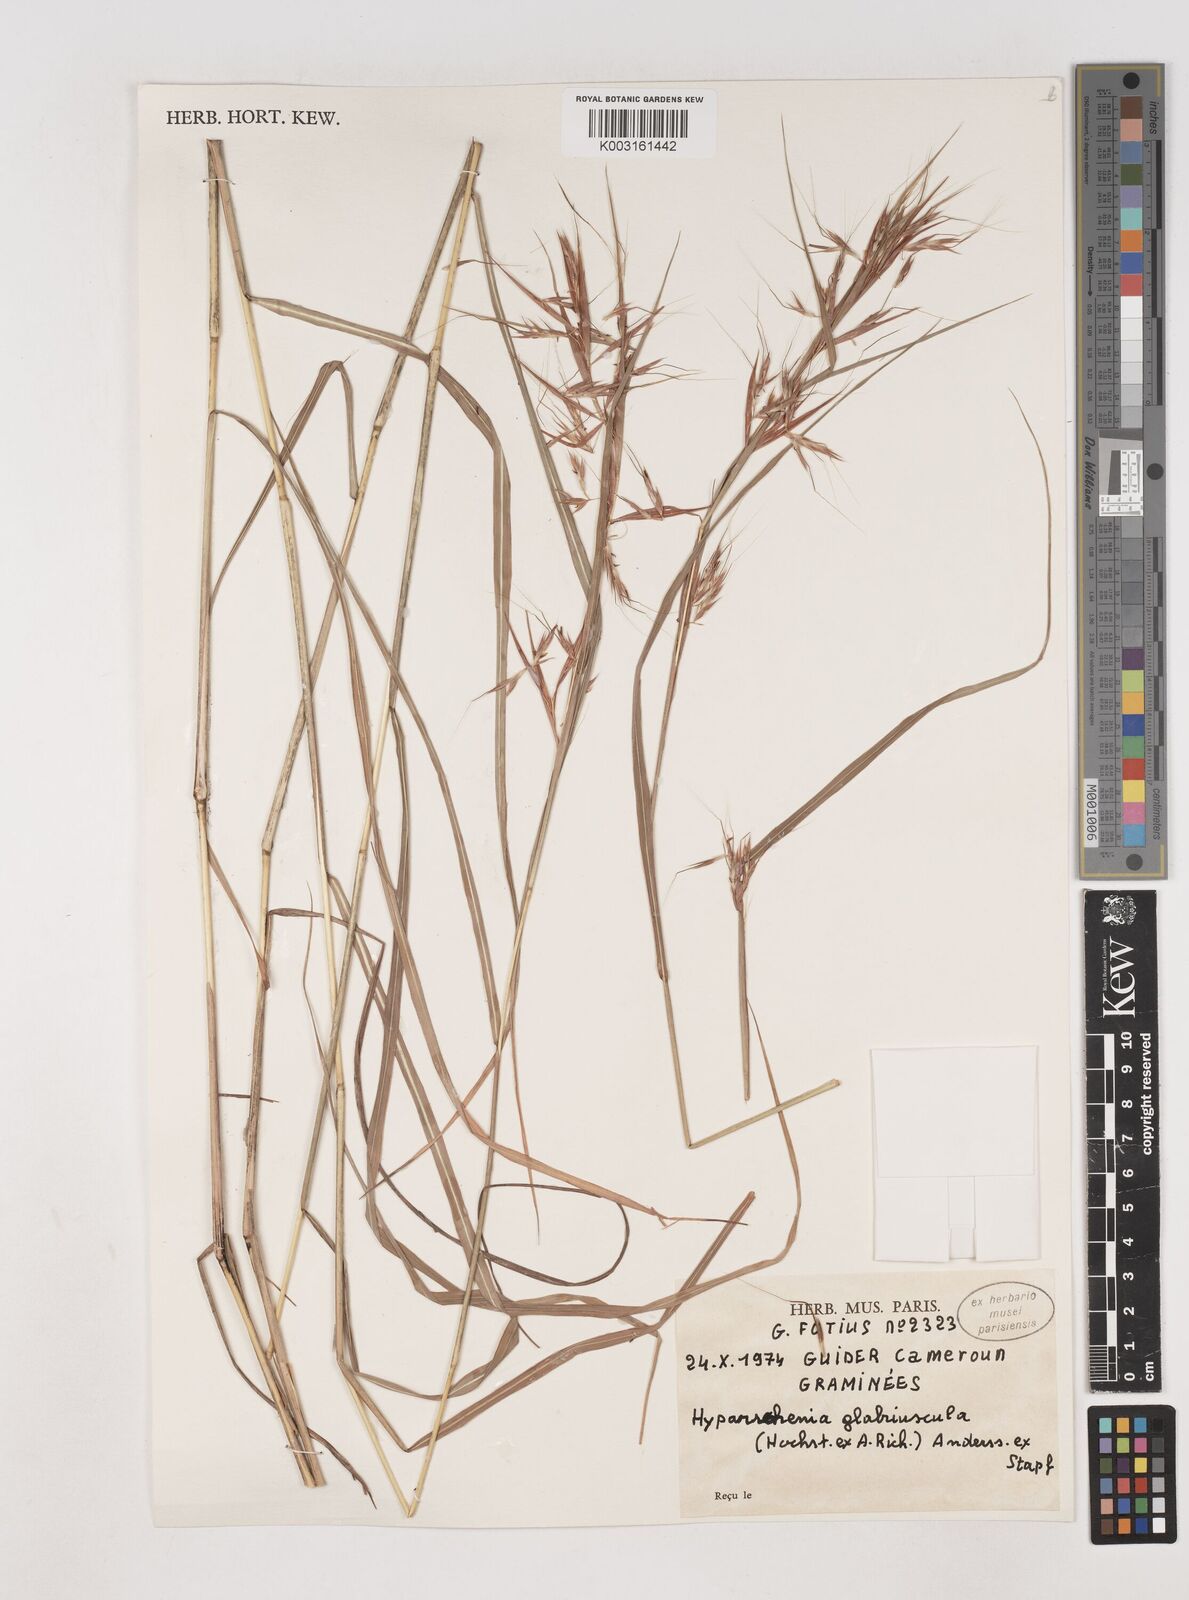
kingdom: Plantae
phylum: Tracheophyta
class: Liliopsida
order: Poales
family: Poaceae
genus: Hyparrhenia
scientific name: Hyparrhenia glabriuscula
